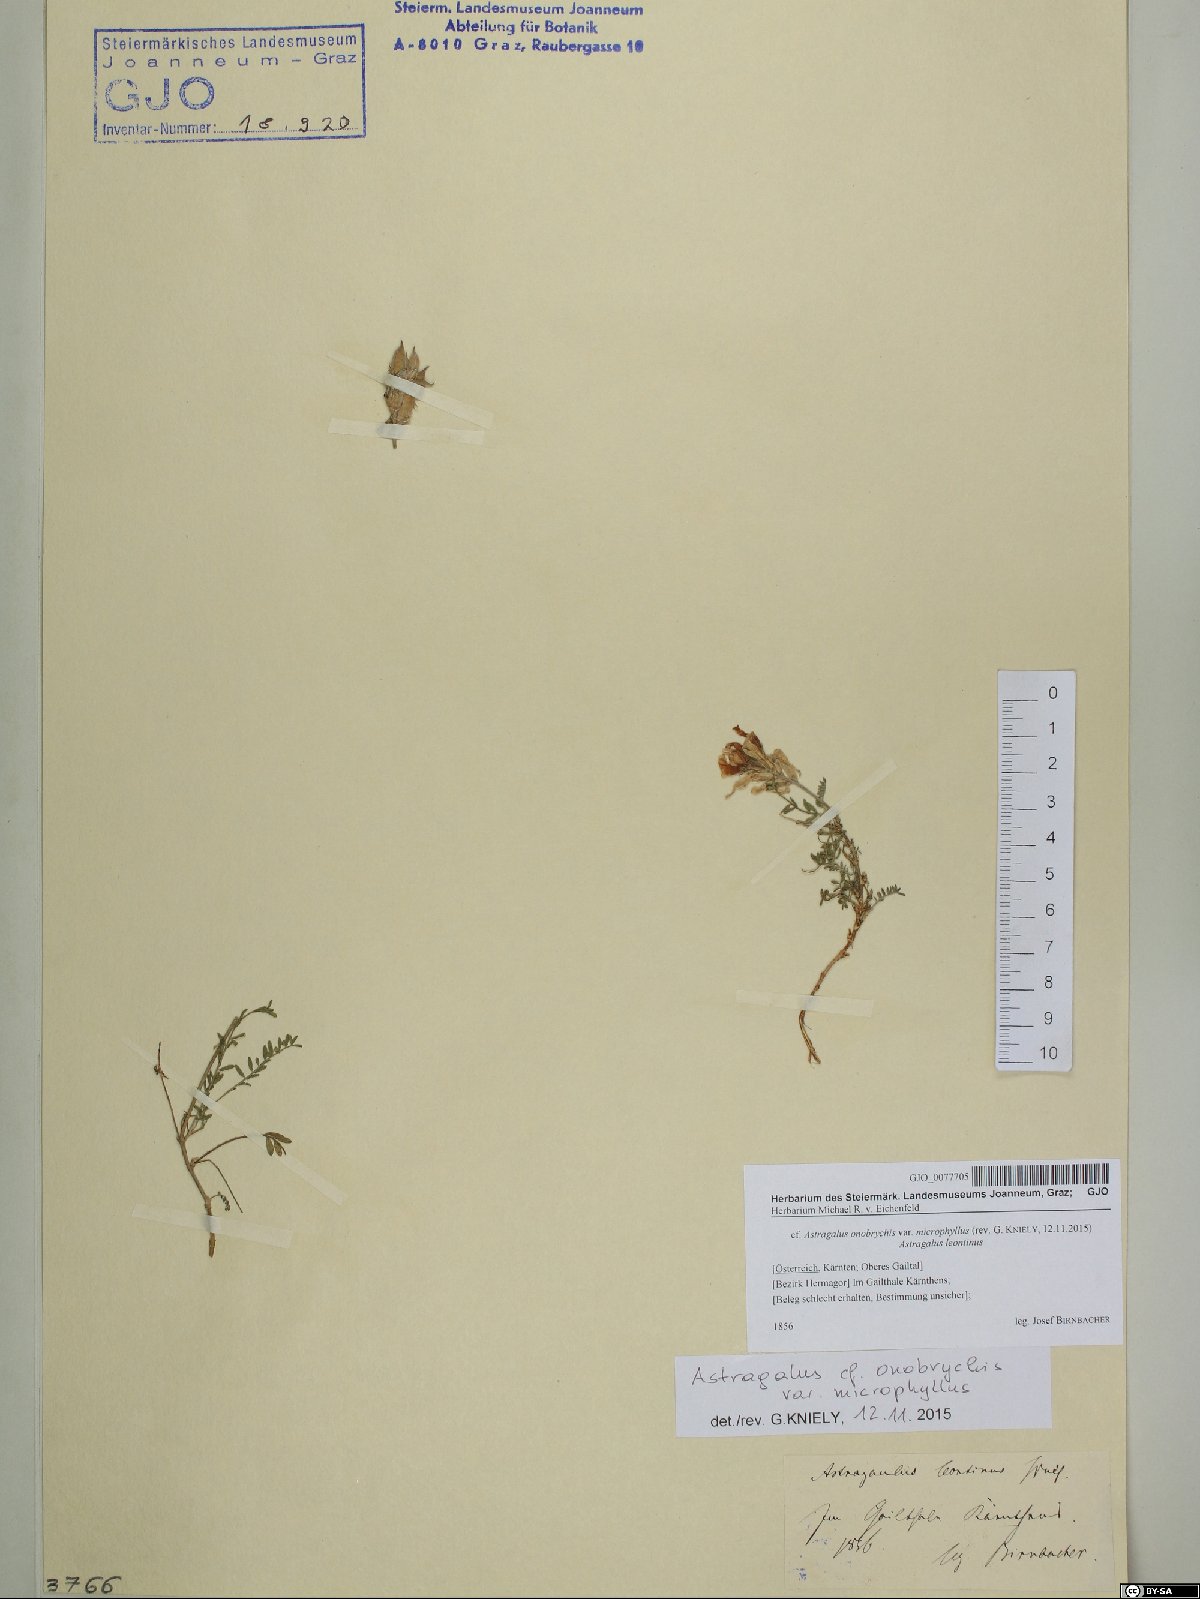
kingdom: Plantae
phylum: Tracheophyta
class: Magnoliopsida
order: Fabales
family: Fabaceae
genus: Astragalus
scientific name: Astragalus onobrychis
